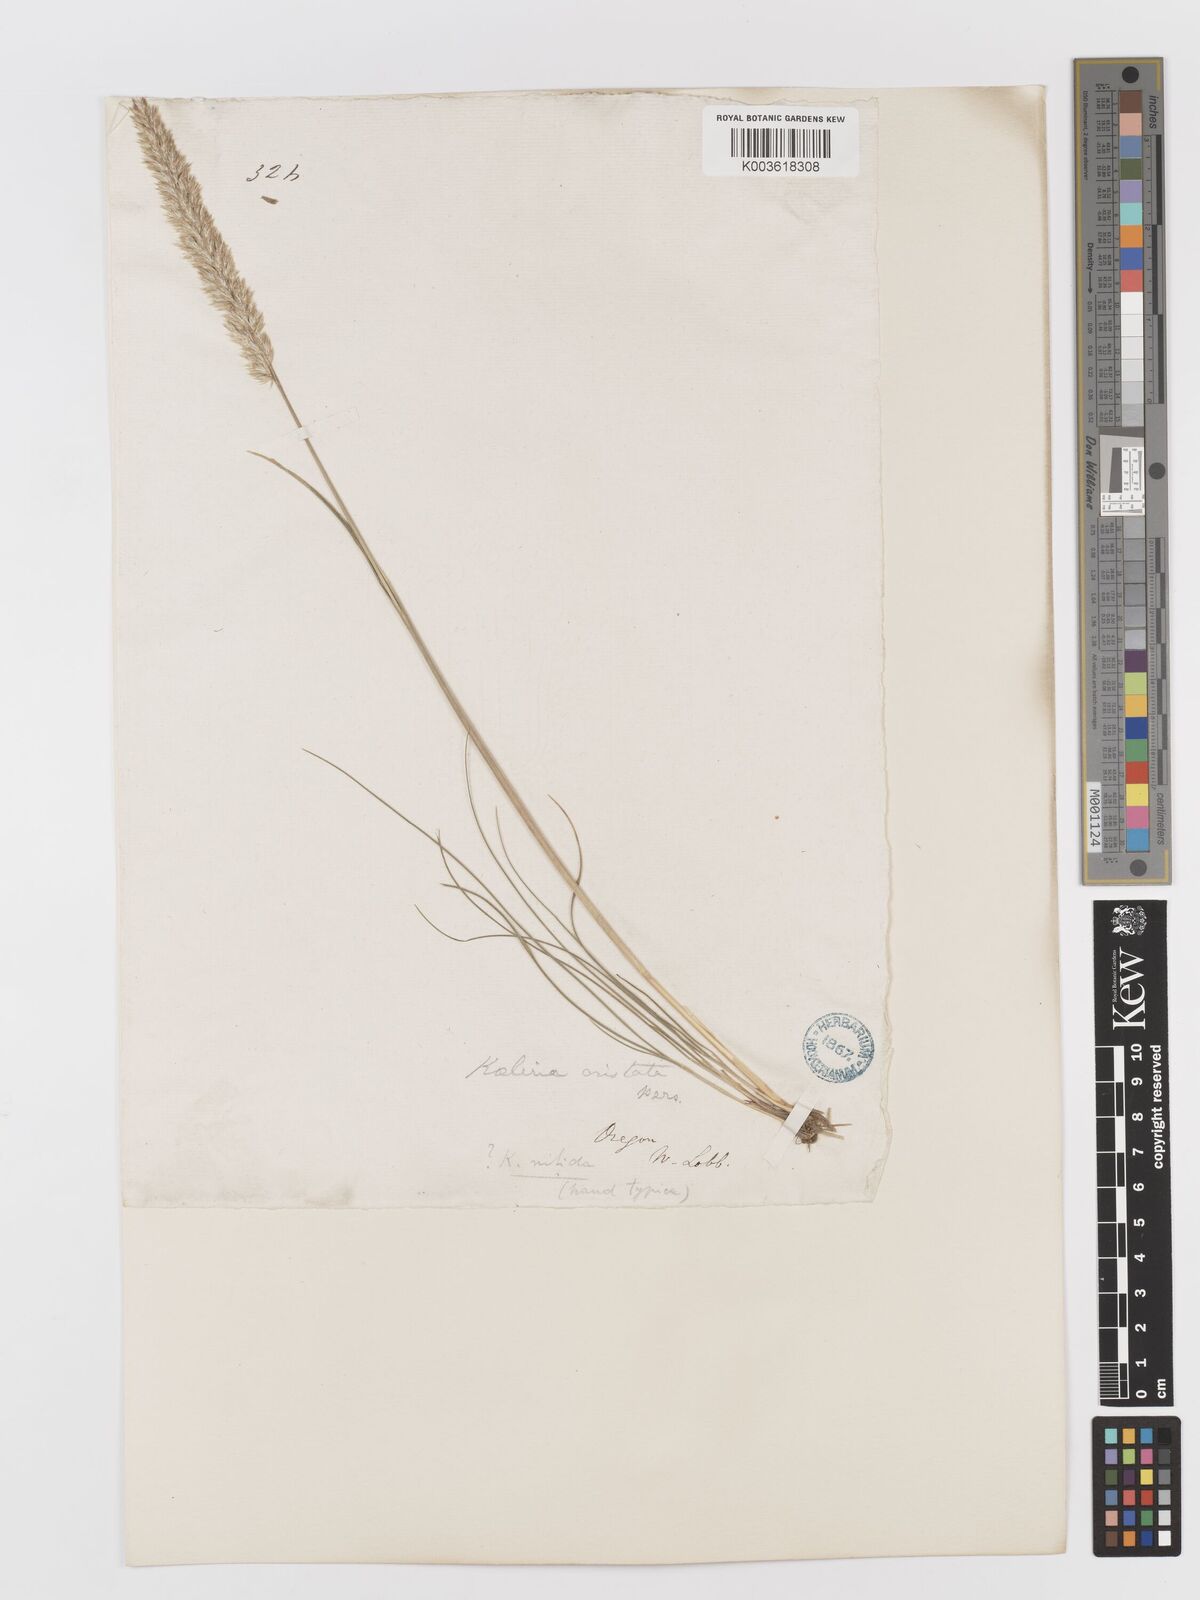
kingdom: Plantae
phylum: Tracheophyta
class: Liliopsida
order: Poales
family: Poaceae
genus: Koeleria
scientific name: Koeleria macrantha
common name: Crested hair-grass
